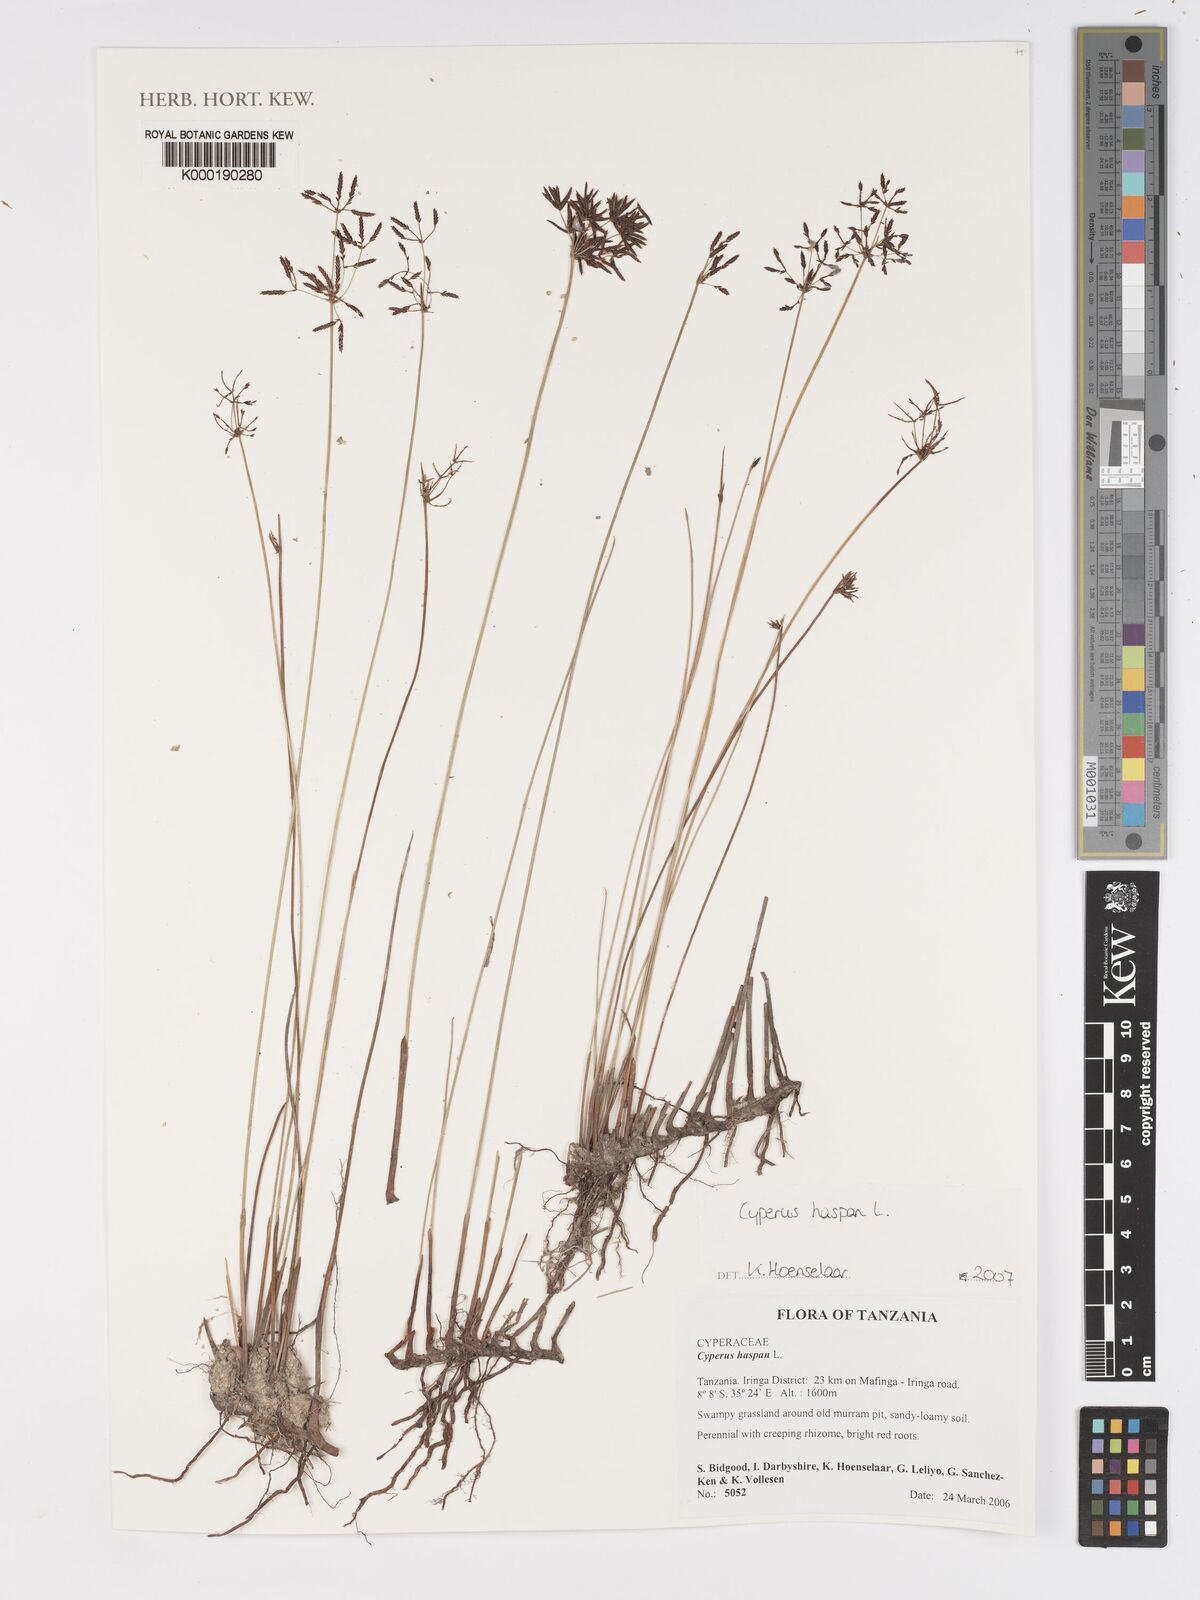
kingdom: Plantae
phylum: Tracheophyta
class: Liliopsida
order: Poales
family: Cyperaceae
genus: Cyperus
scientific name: Cyperus haspan
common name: Haspan flatsedge
